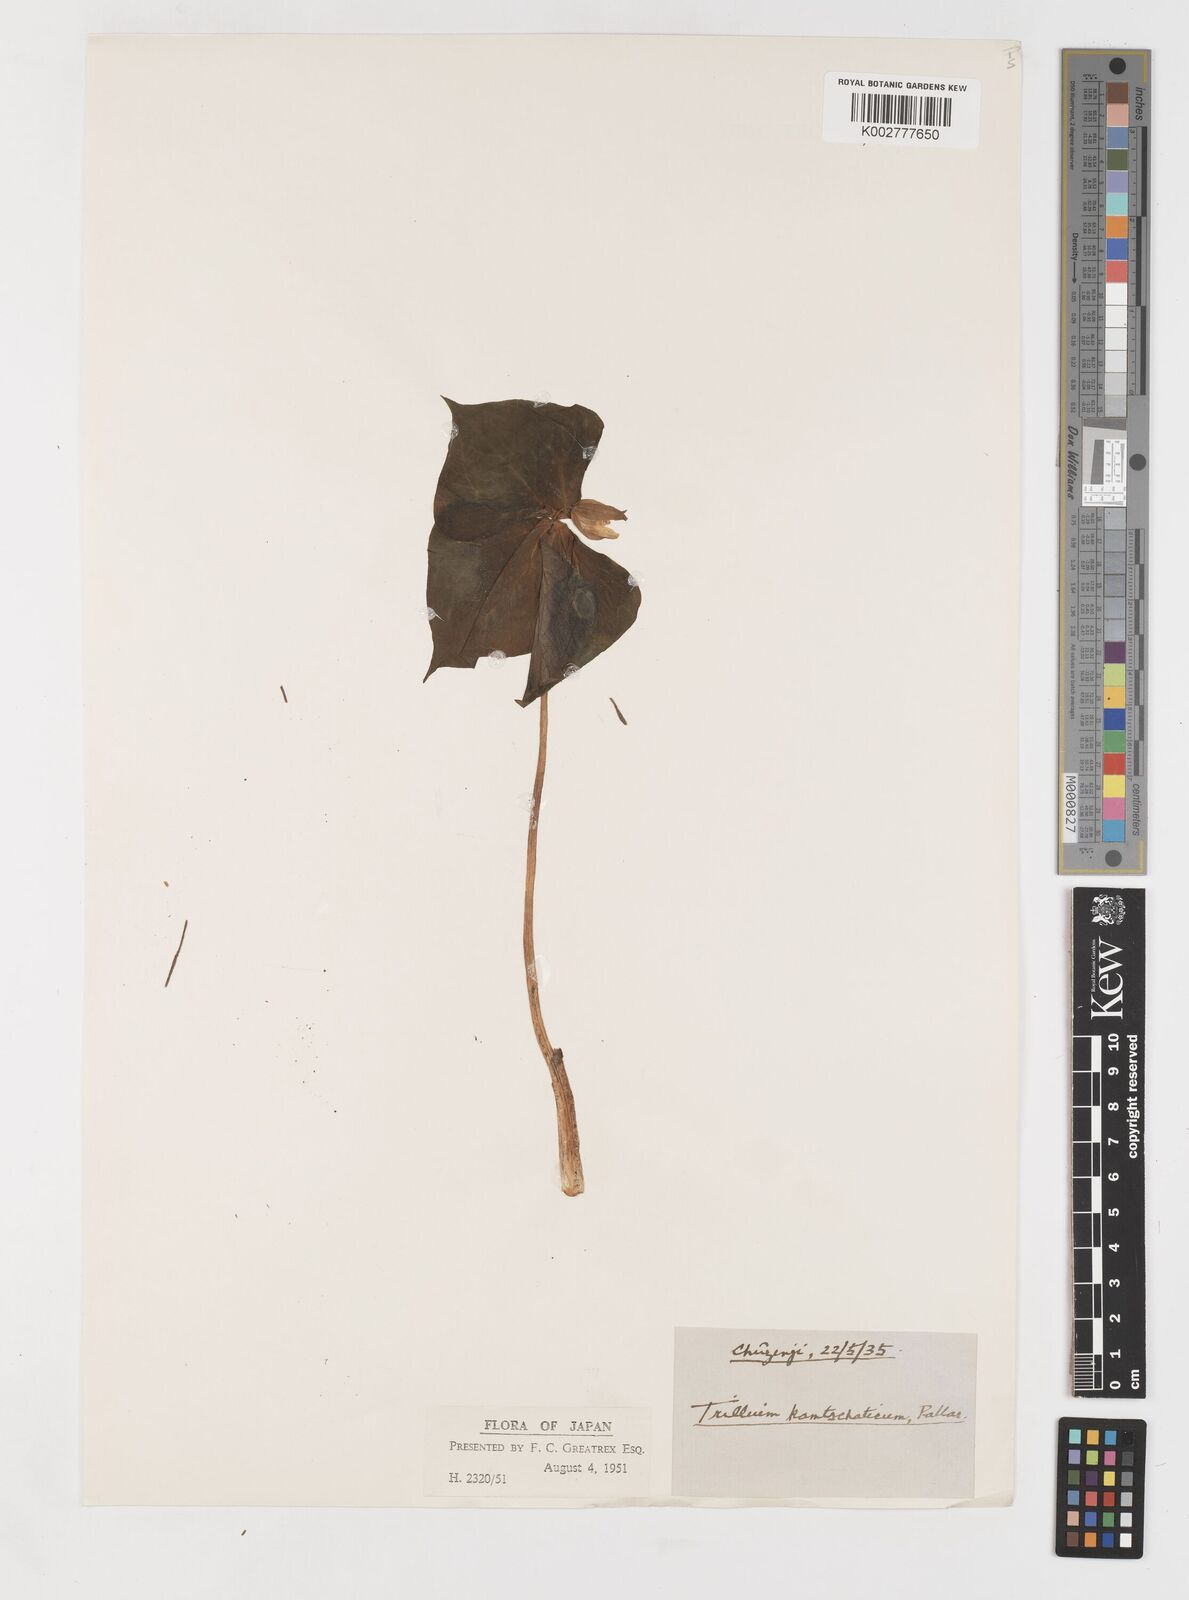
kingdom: Plantae
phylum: Tracheophyta
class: Liliopsida
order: Liliales
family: Melanthiaceae
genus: Trillium
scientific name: Trillium camschatcense
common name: Kamchatka trillium
